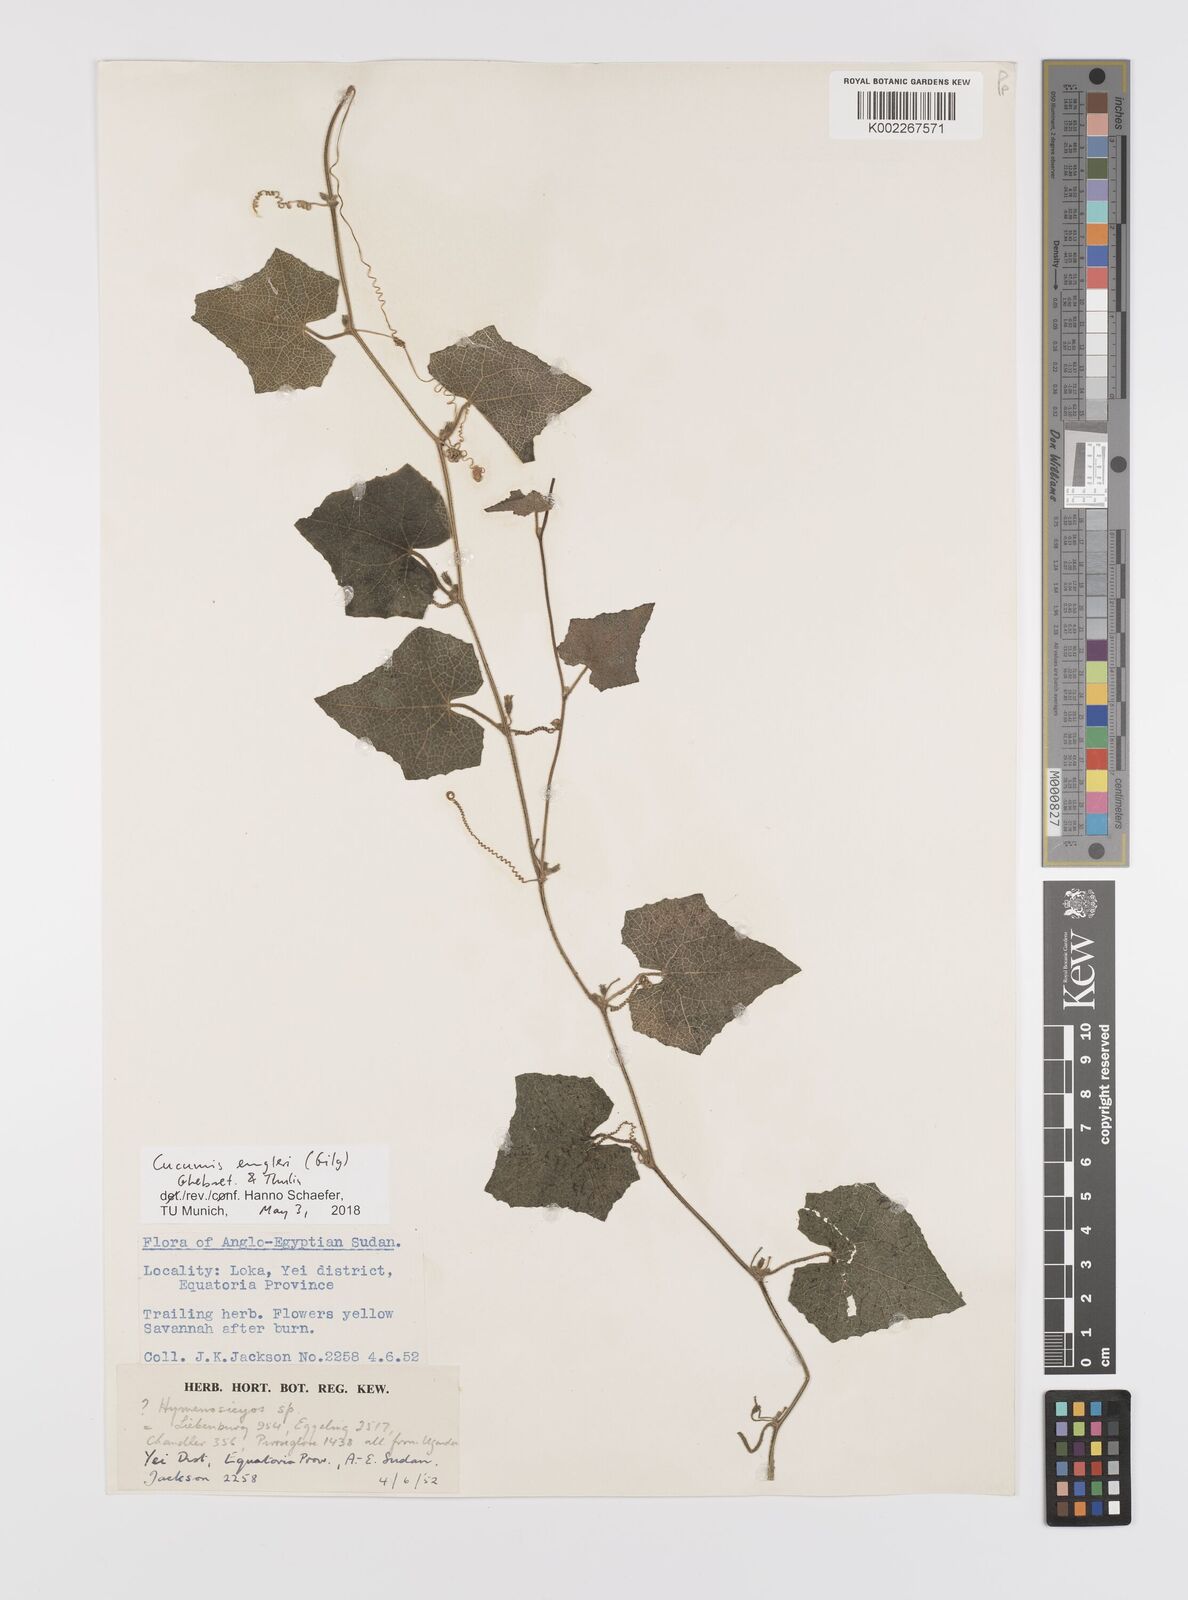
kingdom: Plantae
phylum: Tracheophyta
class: Magnoliopsida
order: Cucurbitales
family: Cucurbitaceae
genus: Cucumis
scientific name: Cucumis engleri
